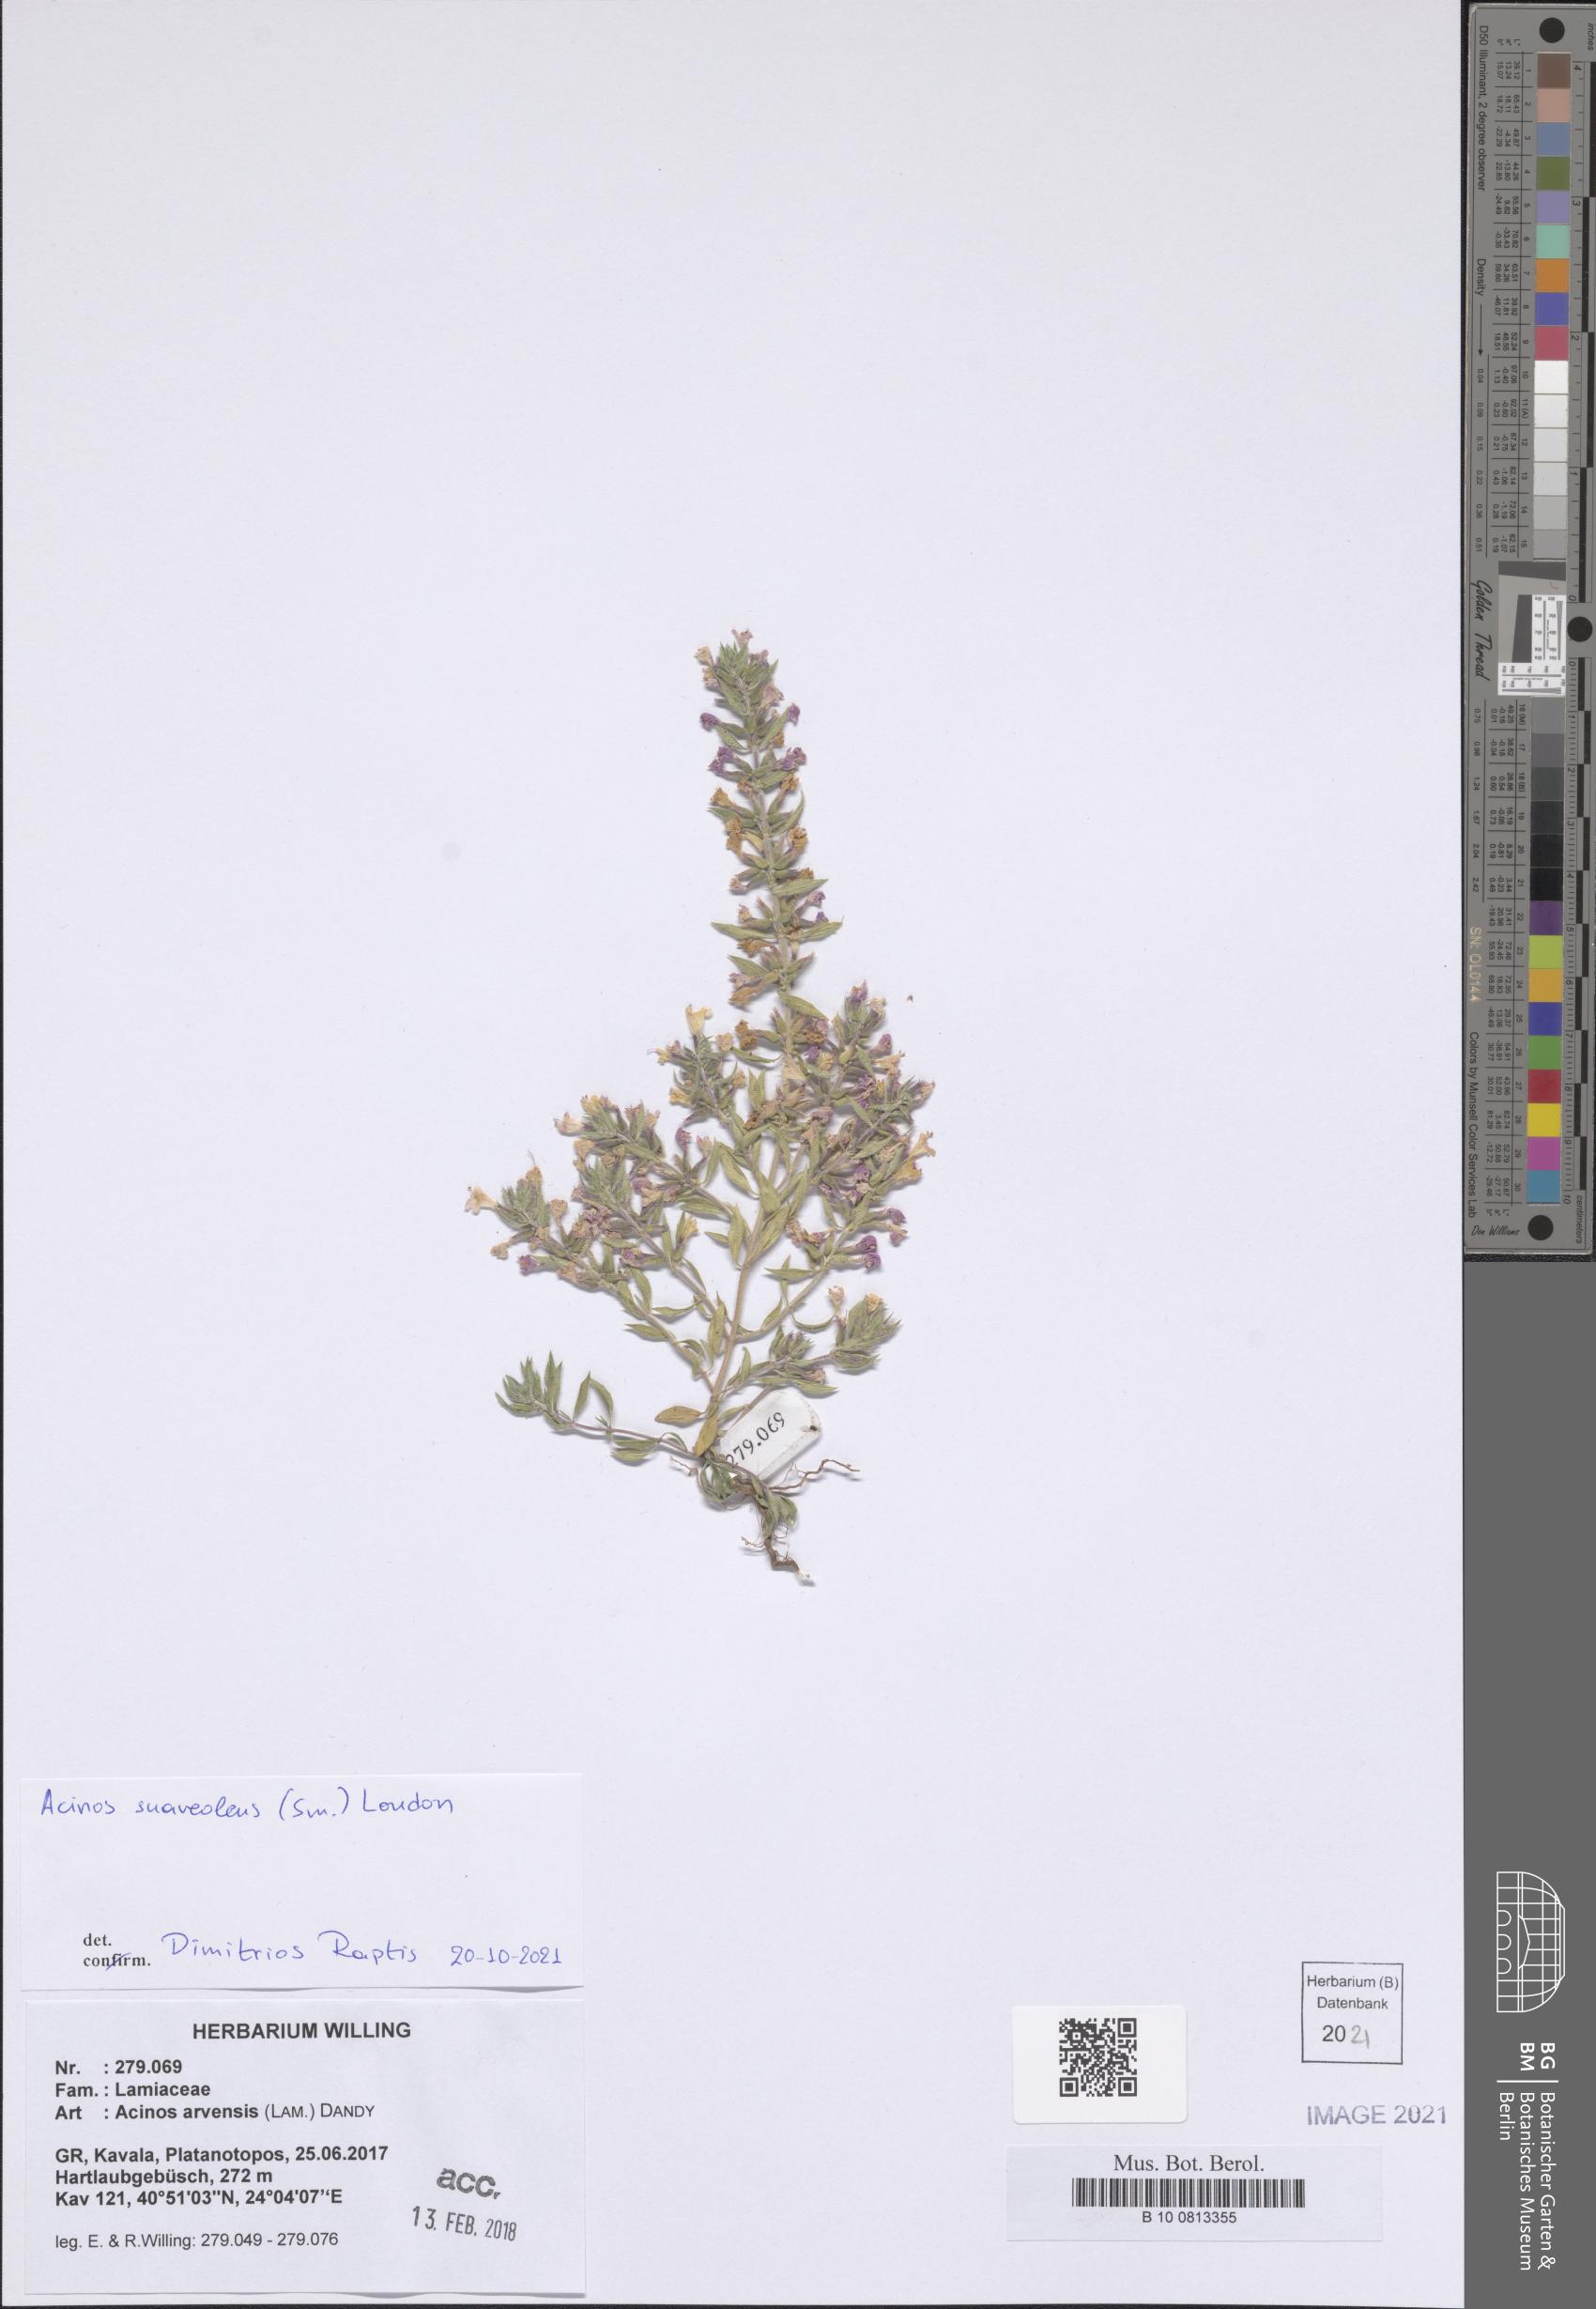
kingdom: Plantae
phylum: Tracheophyta
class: Magnoliopsida
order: Lamiales
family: Lamiaceae
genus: Clinopodium
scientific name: Clinopodium suaveolens
